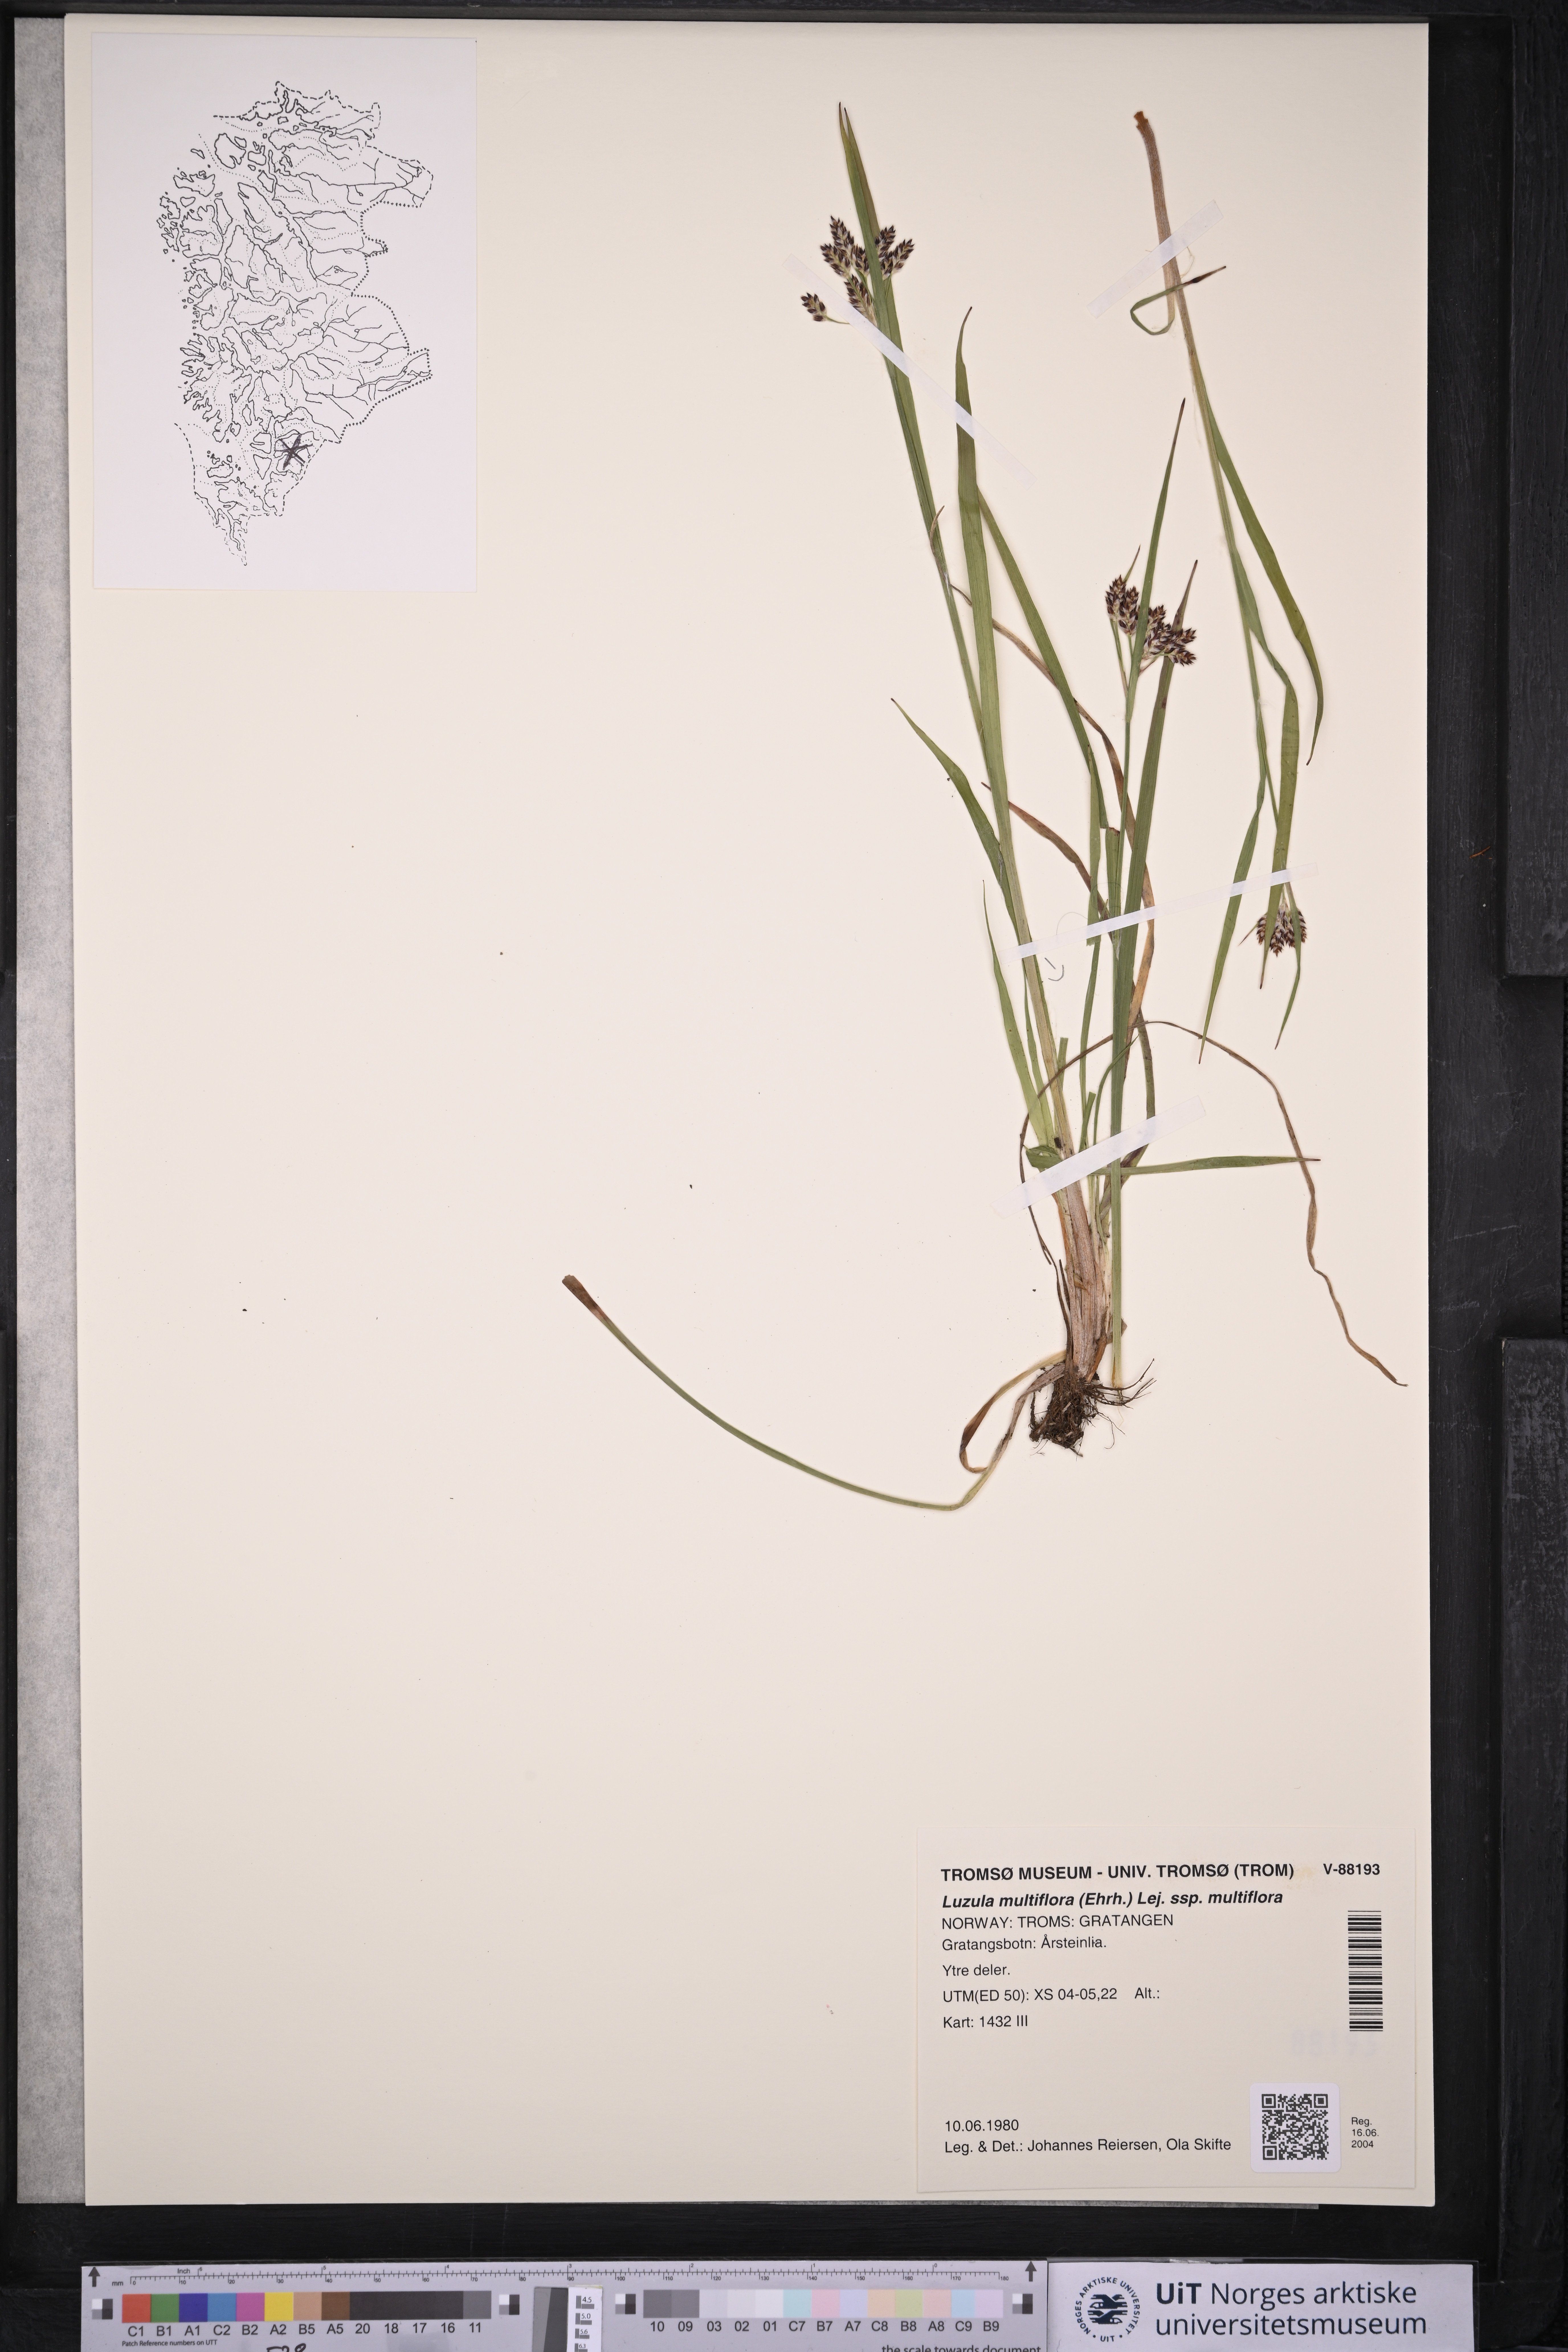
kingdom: Plantae
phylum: Tracheophyta
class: Liliopsida
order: Poales
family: Juncaceae
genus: Luzula
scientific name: Luzula multiflora
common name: Heath wood-rush
